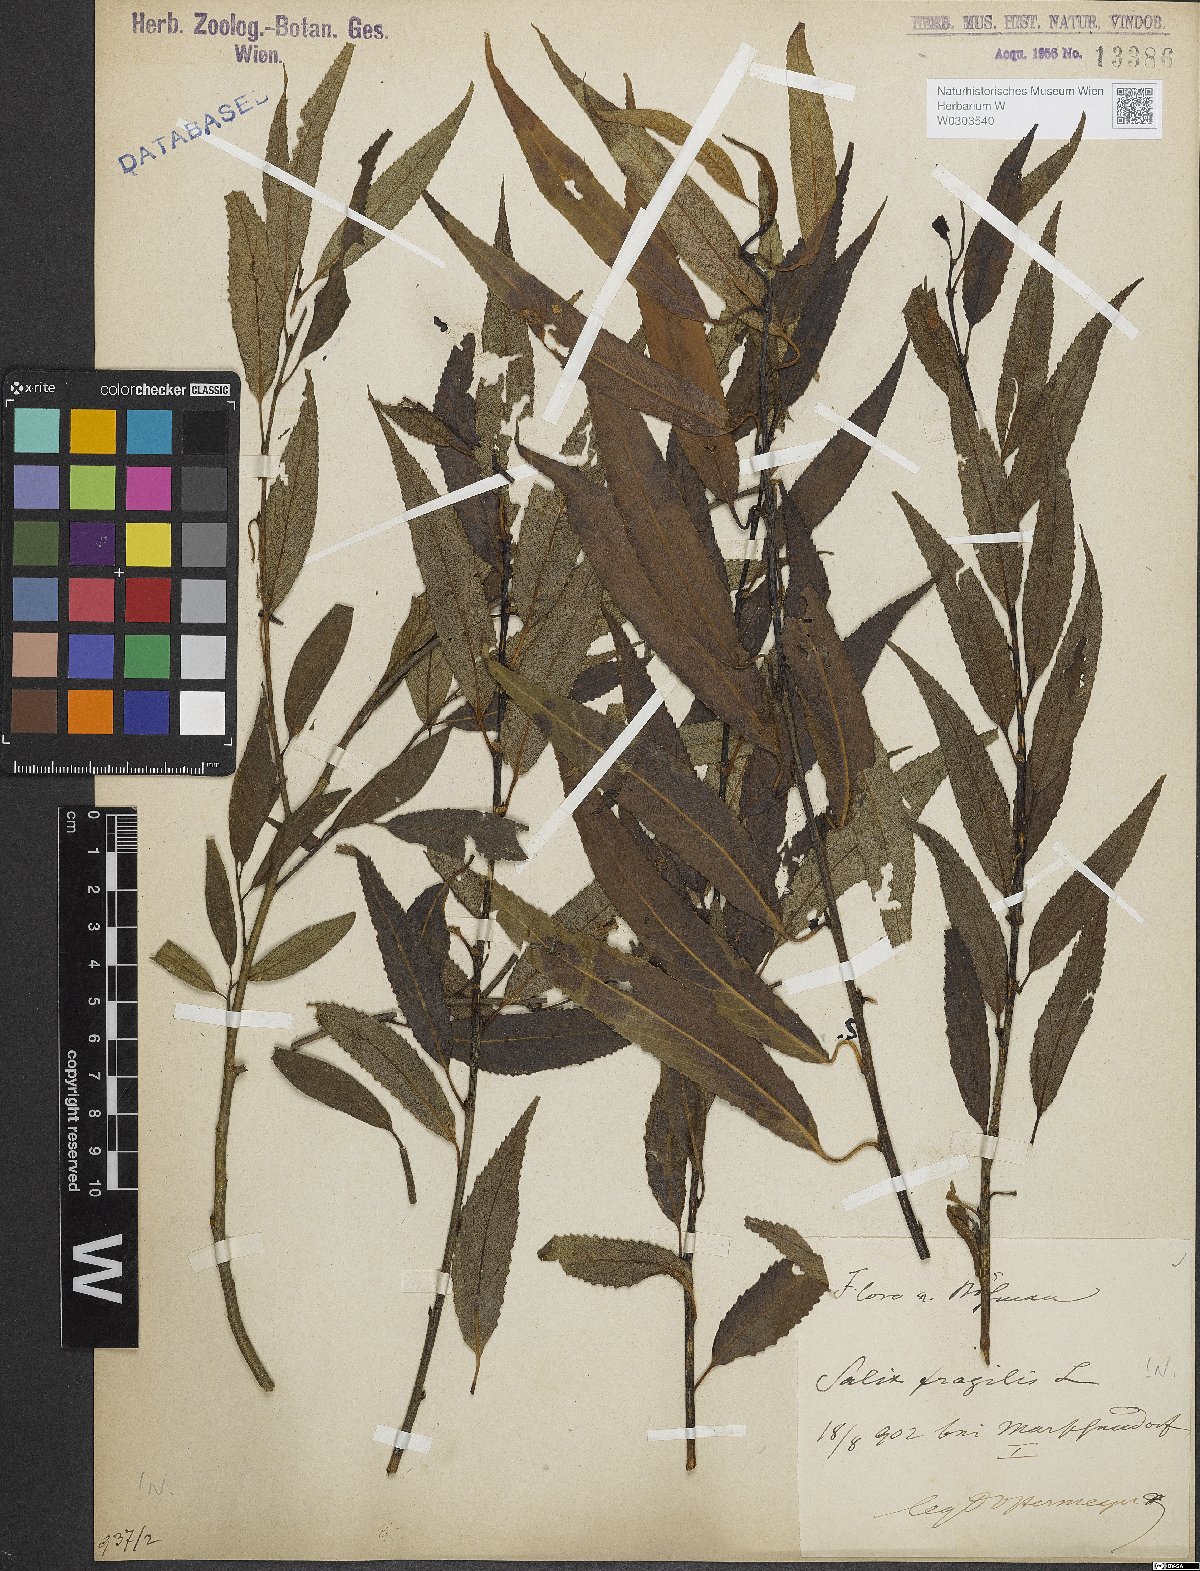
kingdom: Plantae
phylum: Tracheophyta
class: Magnoliopsida
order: Malpighiales
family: Salicaceae
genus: Salix
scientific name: Salix fragilis
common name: Crack willow
